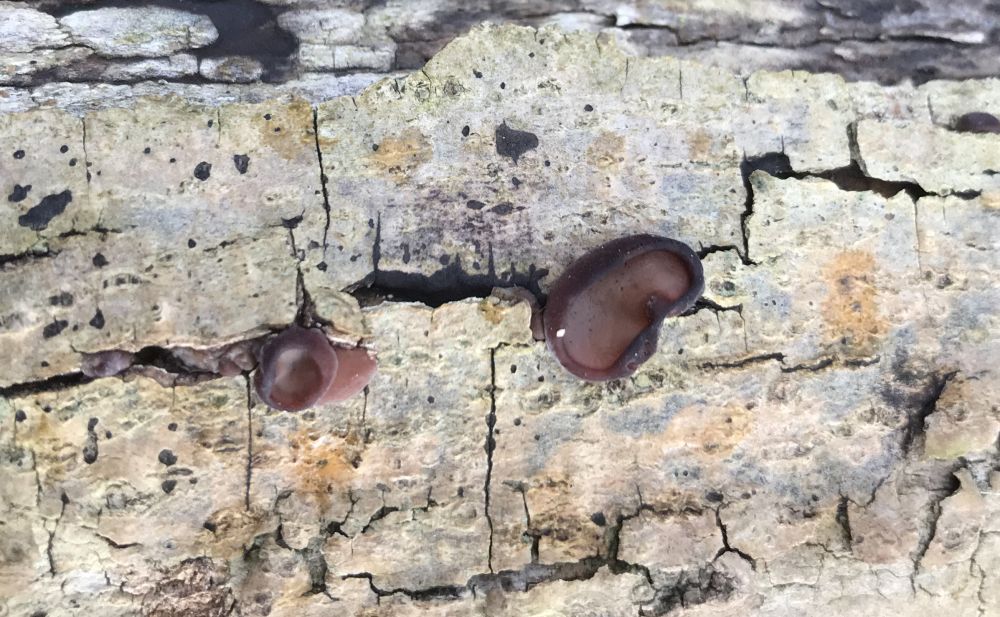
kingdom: Fungi
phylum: Basidiomycota
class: Agaricomycetes
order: Auriculariales
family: Auriculariaceae
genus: Auricularia
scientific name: Auricularia auricula-judae
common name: almindelig judasøre
